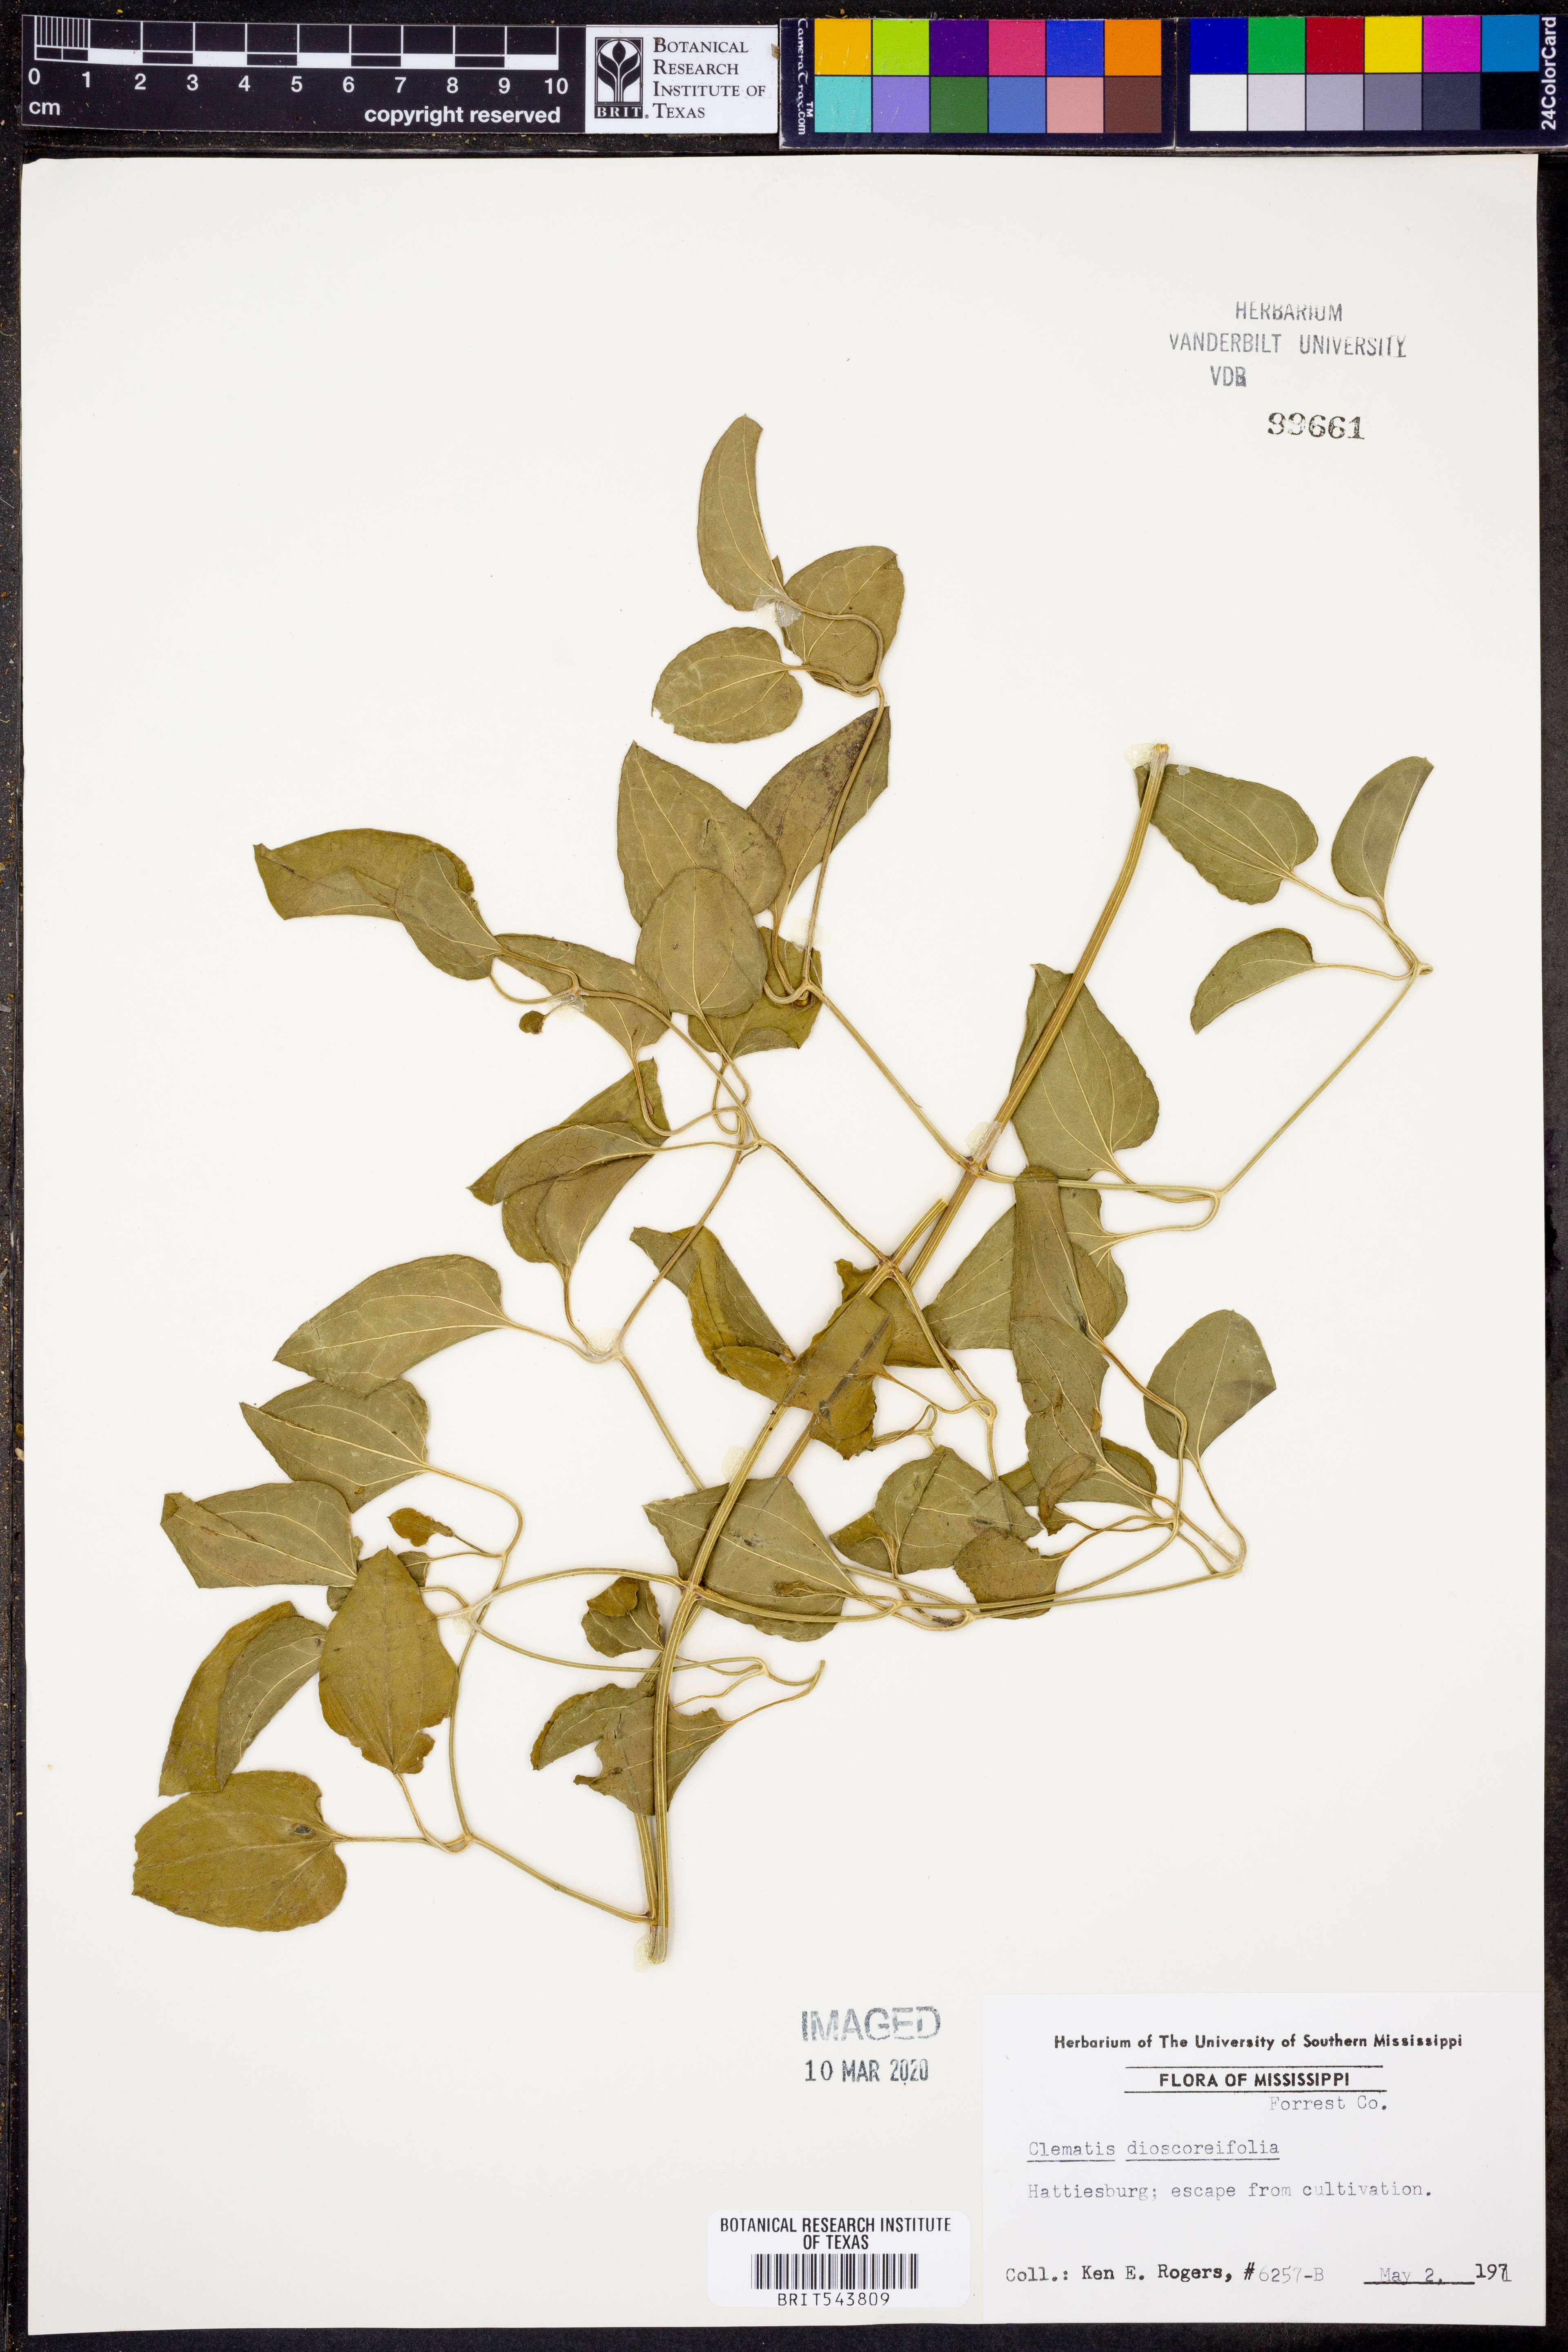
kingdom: Plantae
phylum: Tracheophyta
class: Magnoliopsida
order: Ranunculales
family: Ranunculaceae
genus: Clematis
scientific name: Clematis terniflora
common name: Sweet autumn clematis
